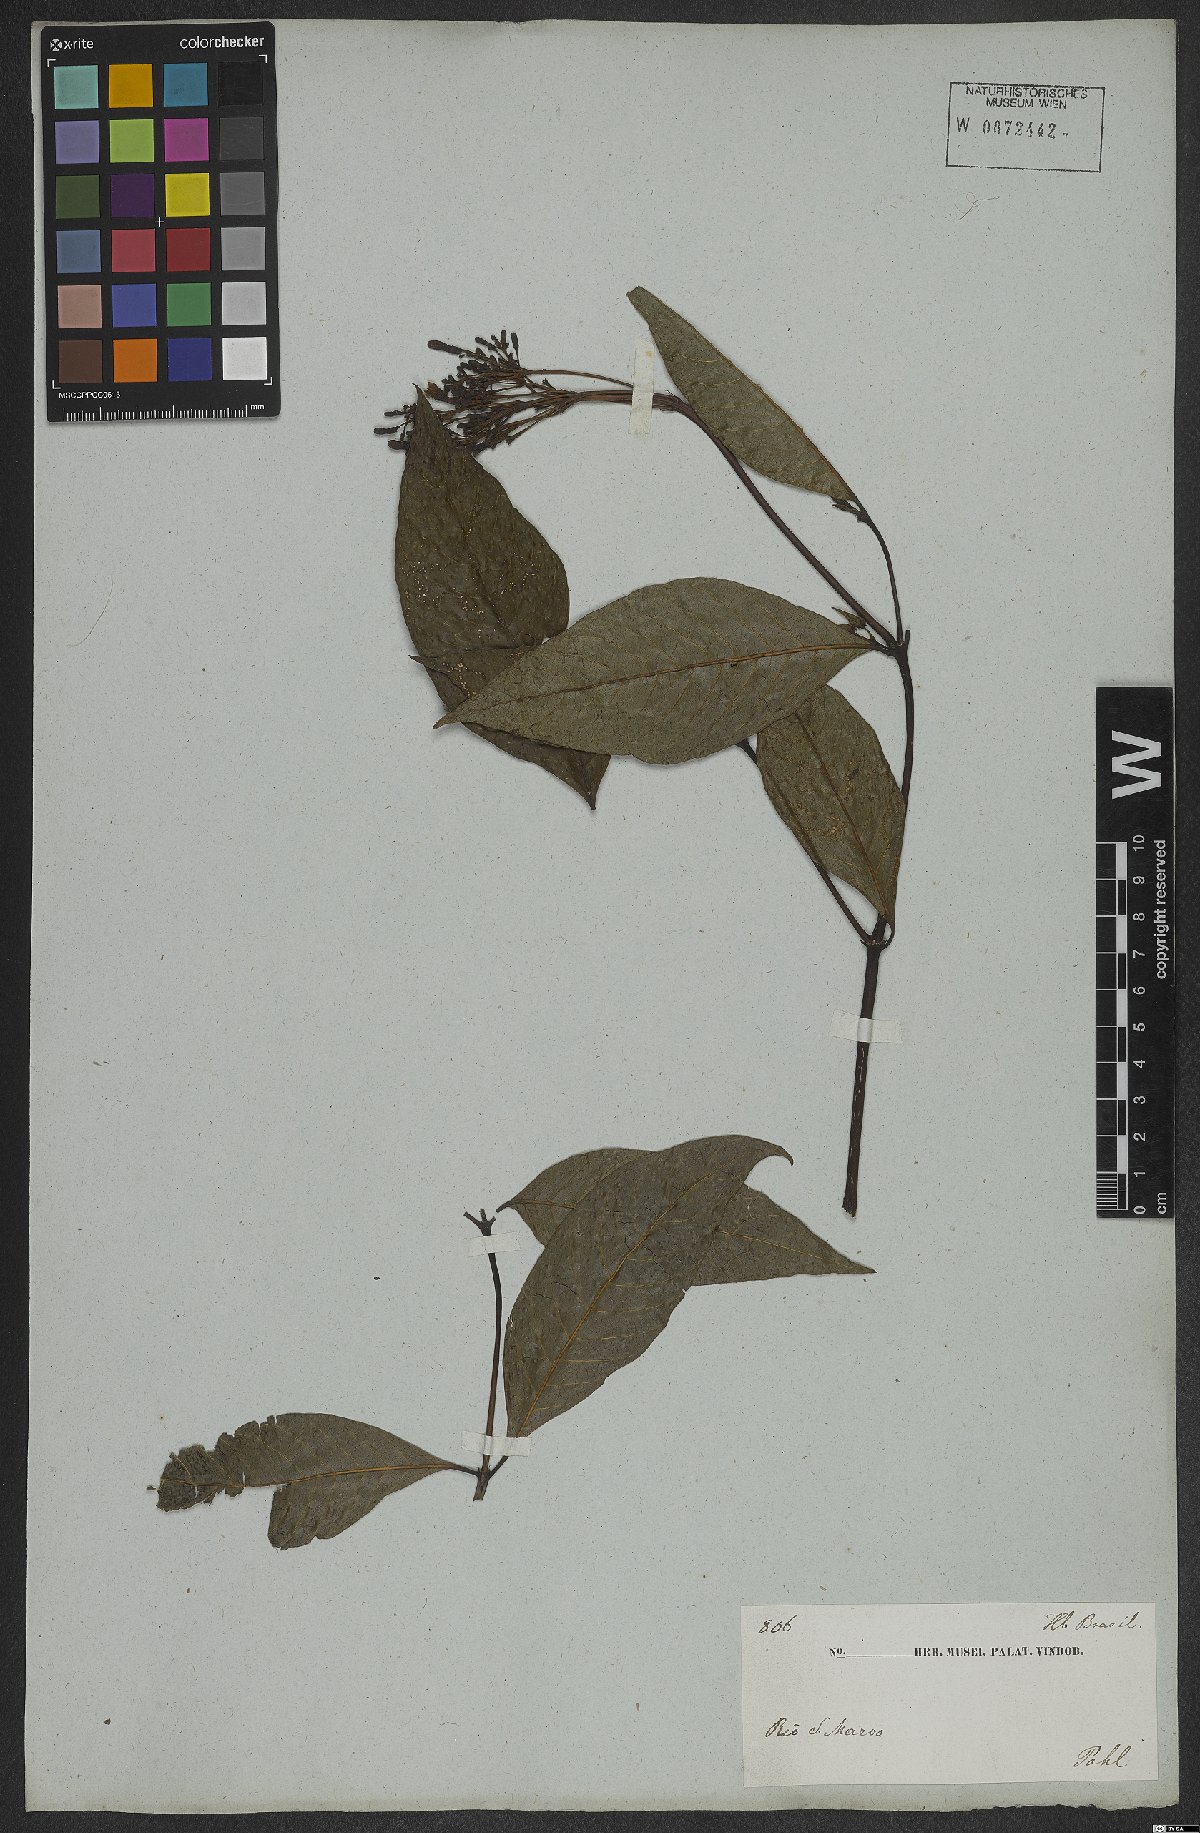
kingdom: Plantae
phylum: Tracheophyta
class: Magnoliopsida
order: Gentianales
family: Rubiaceae
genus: Palicourea
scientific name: Palicourea
